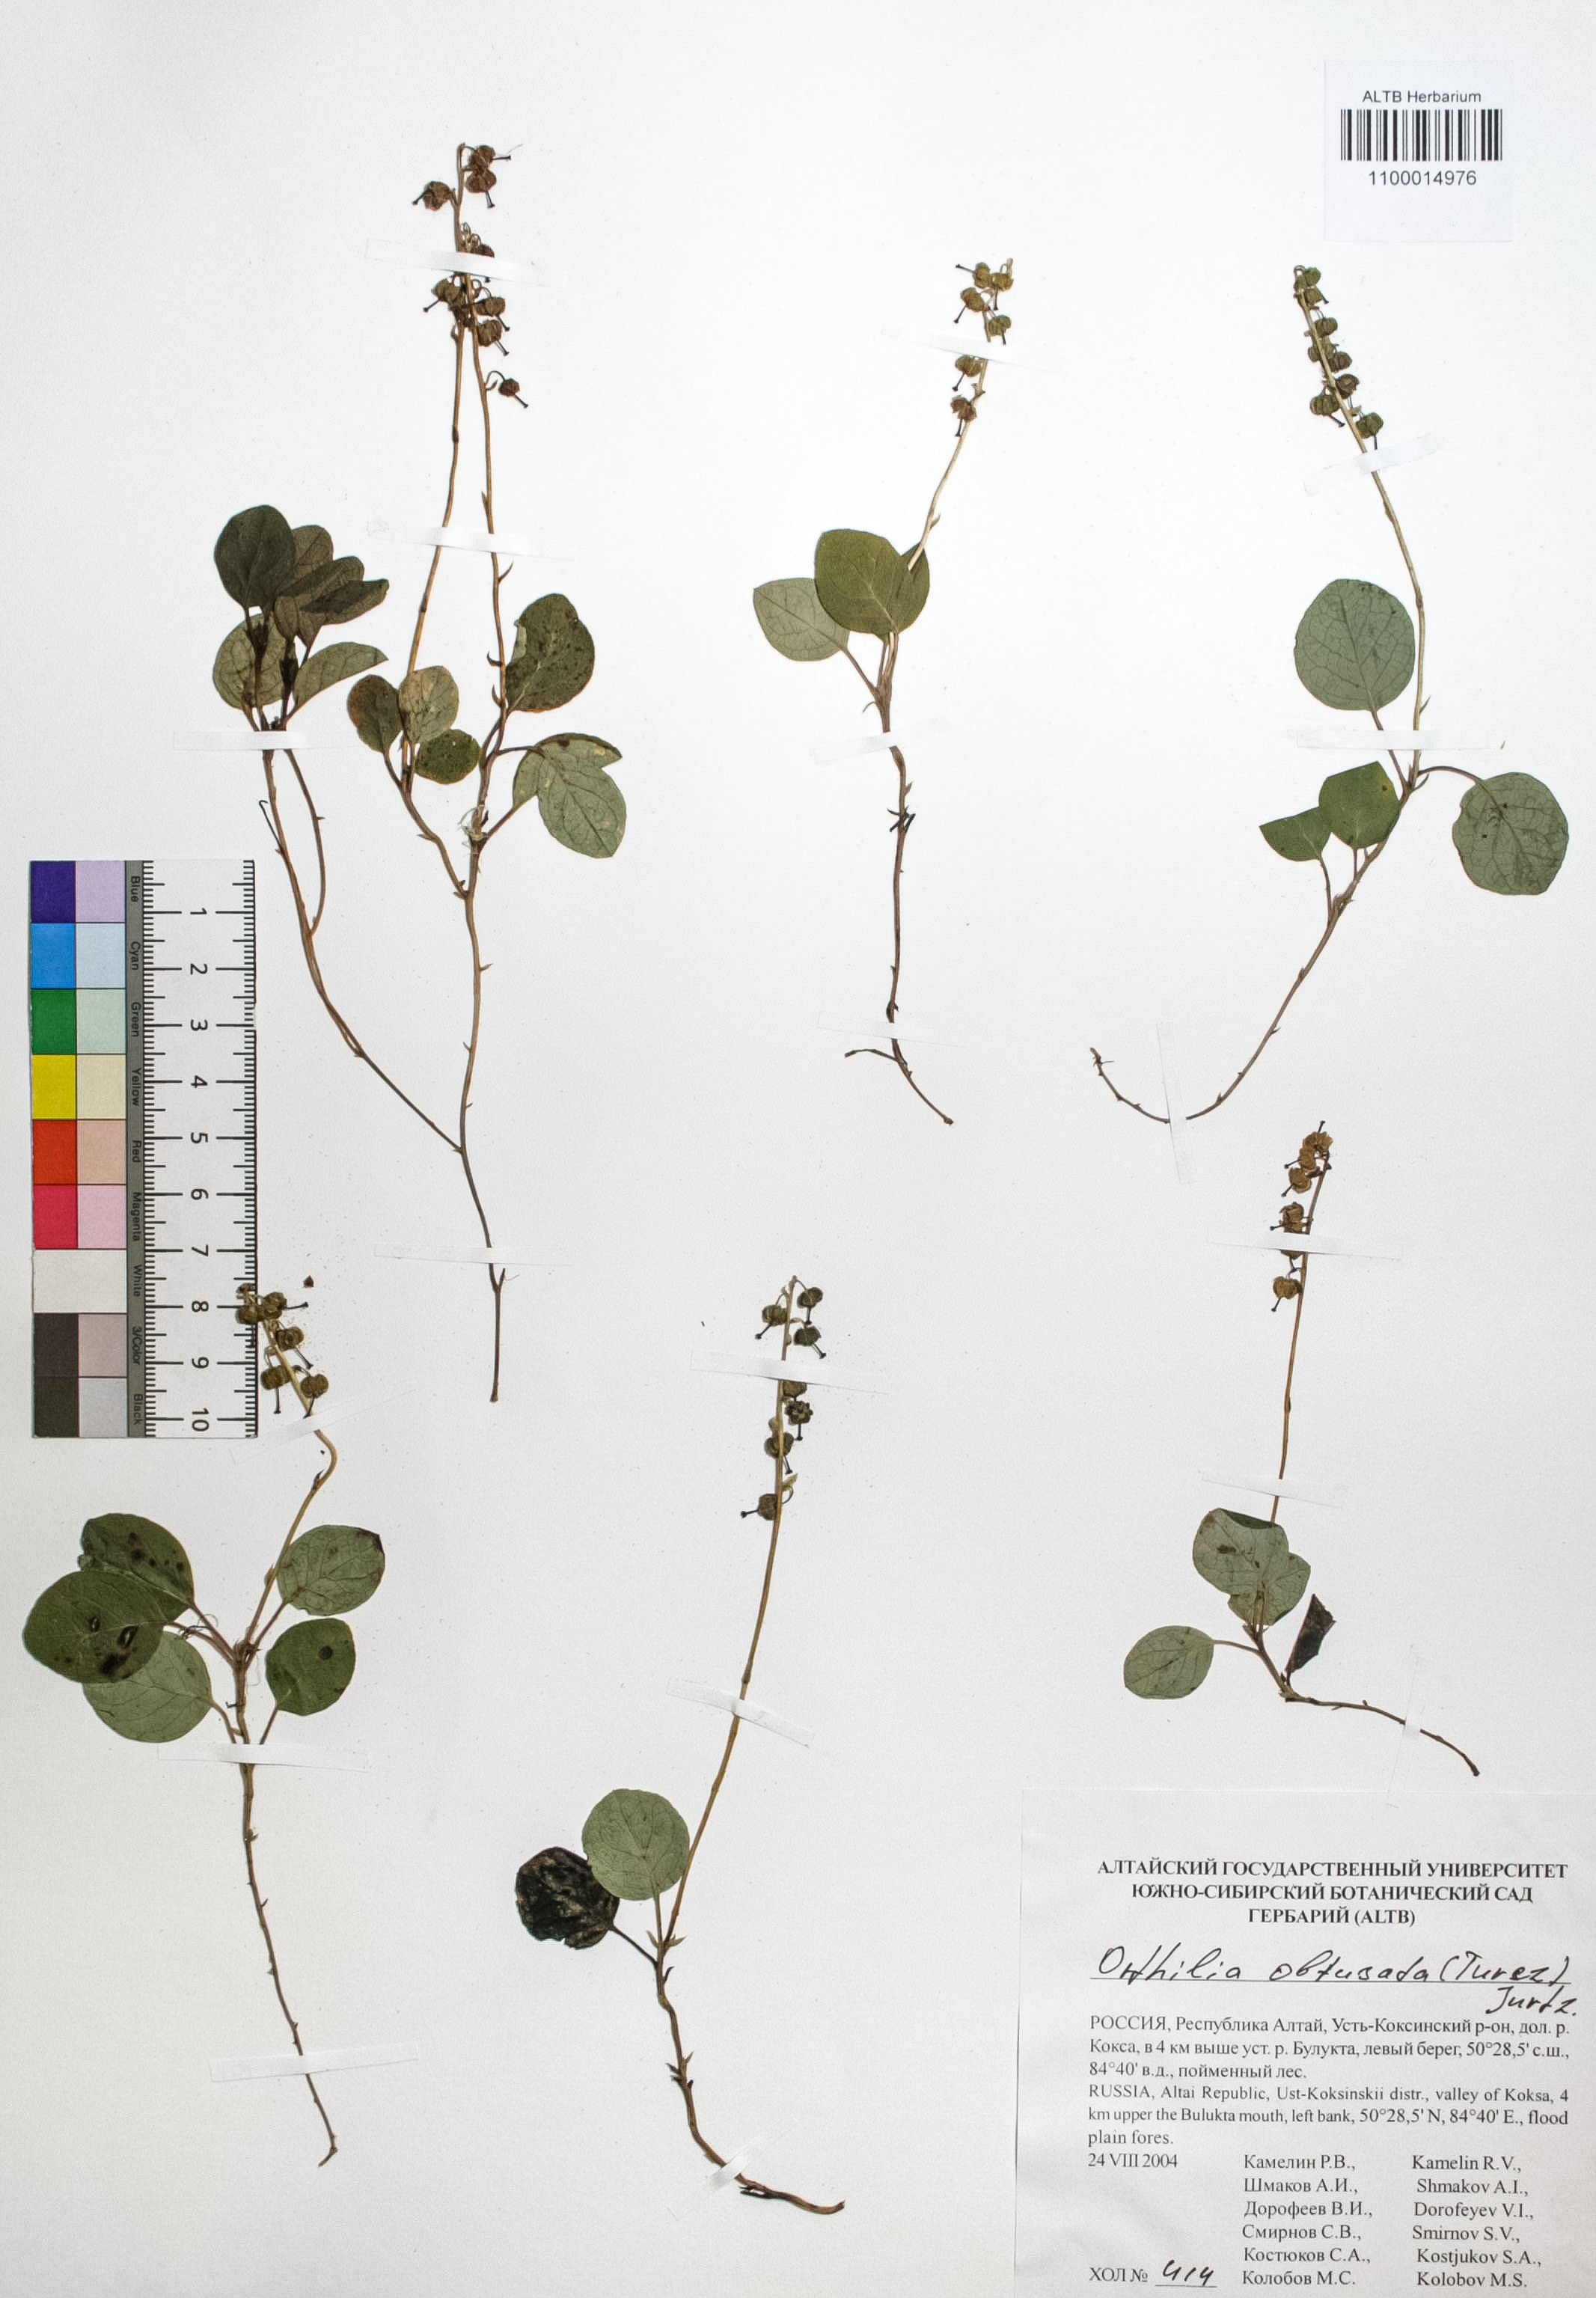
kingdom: Plantae
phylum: Tracheophyta
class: Magnoliopsida
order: Ericales
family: Ericaceae
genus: Orthilia
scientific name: Orthilia secunda
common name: One-sided orthilia
